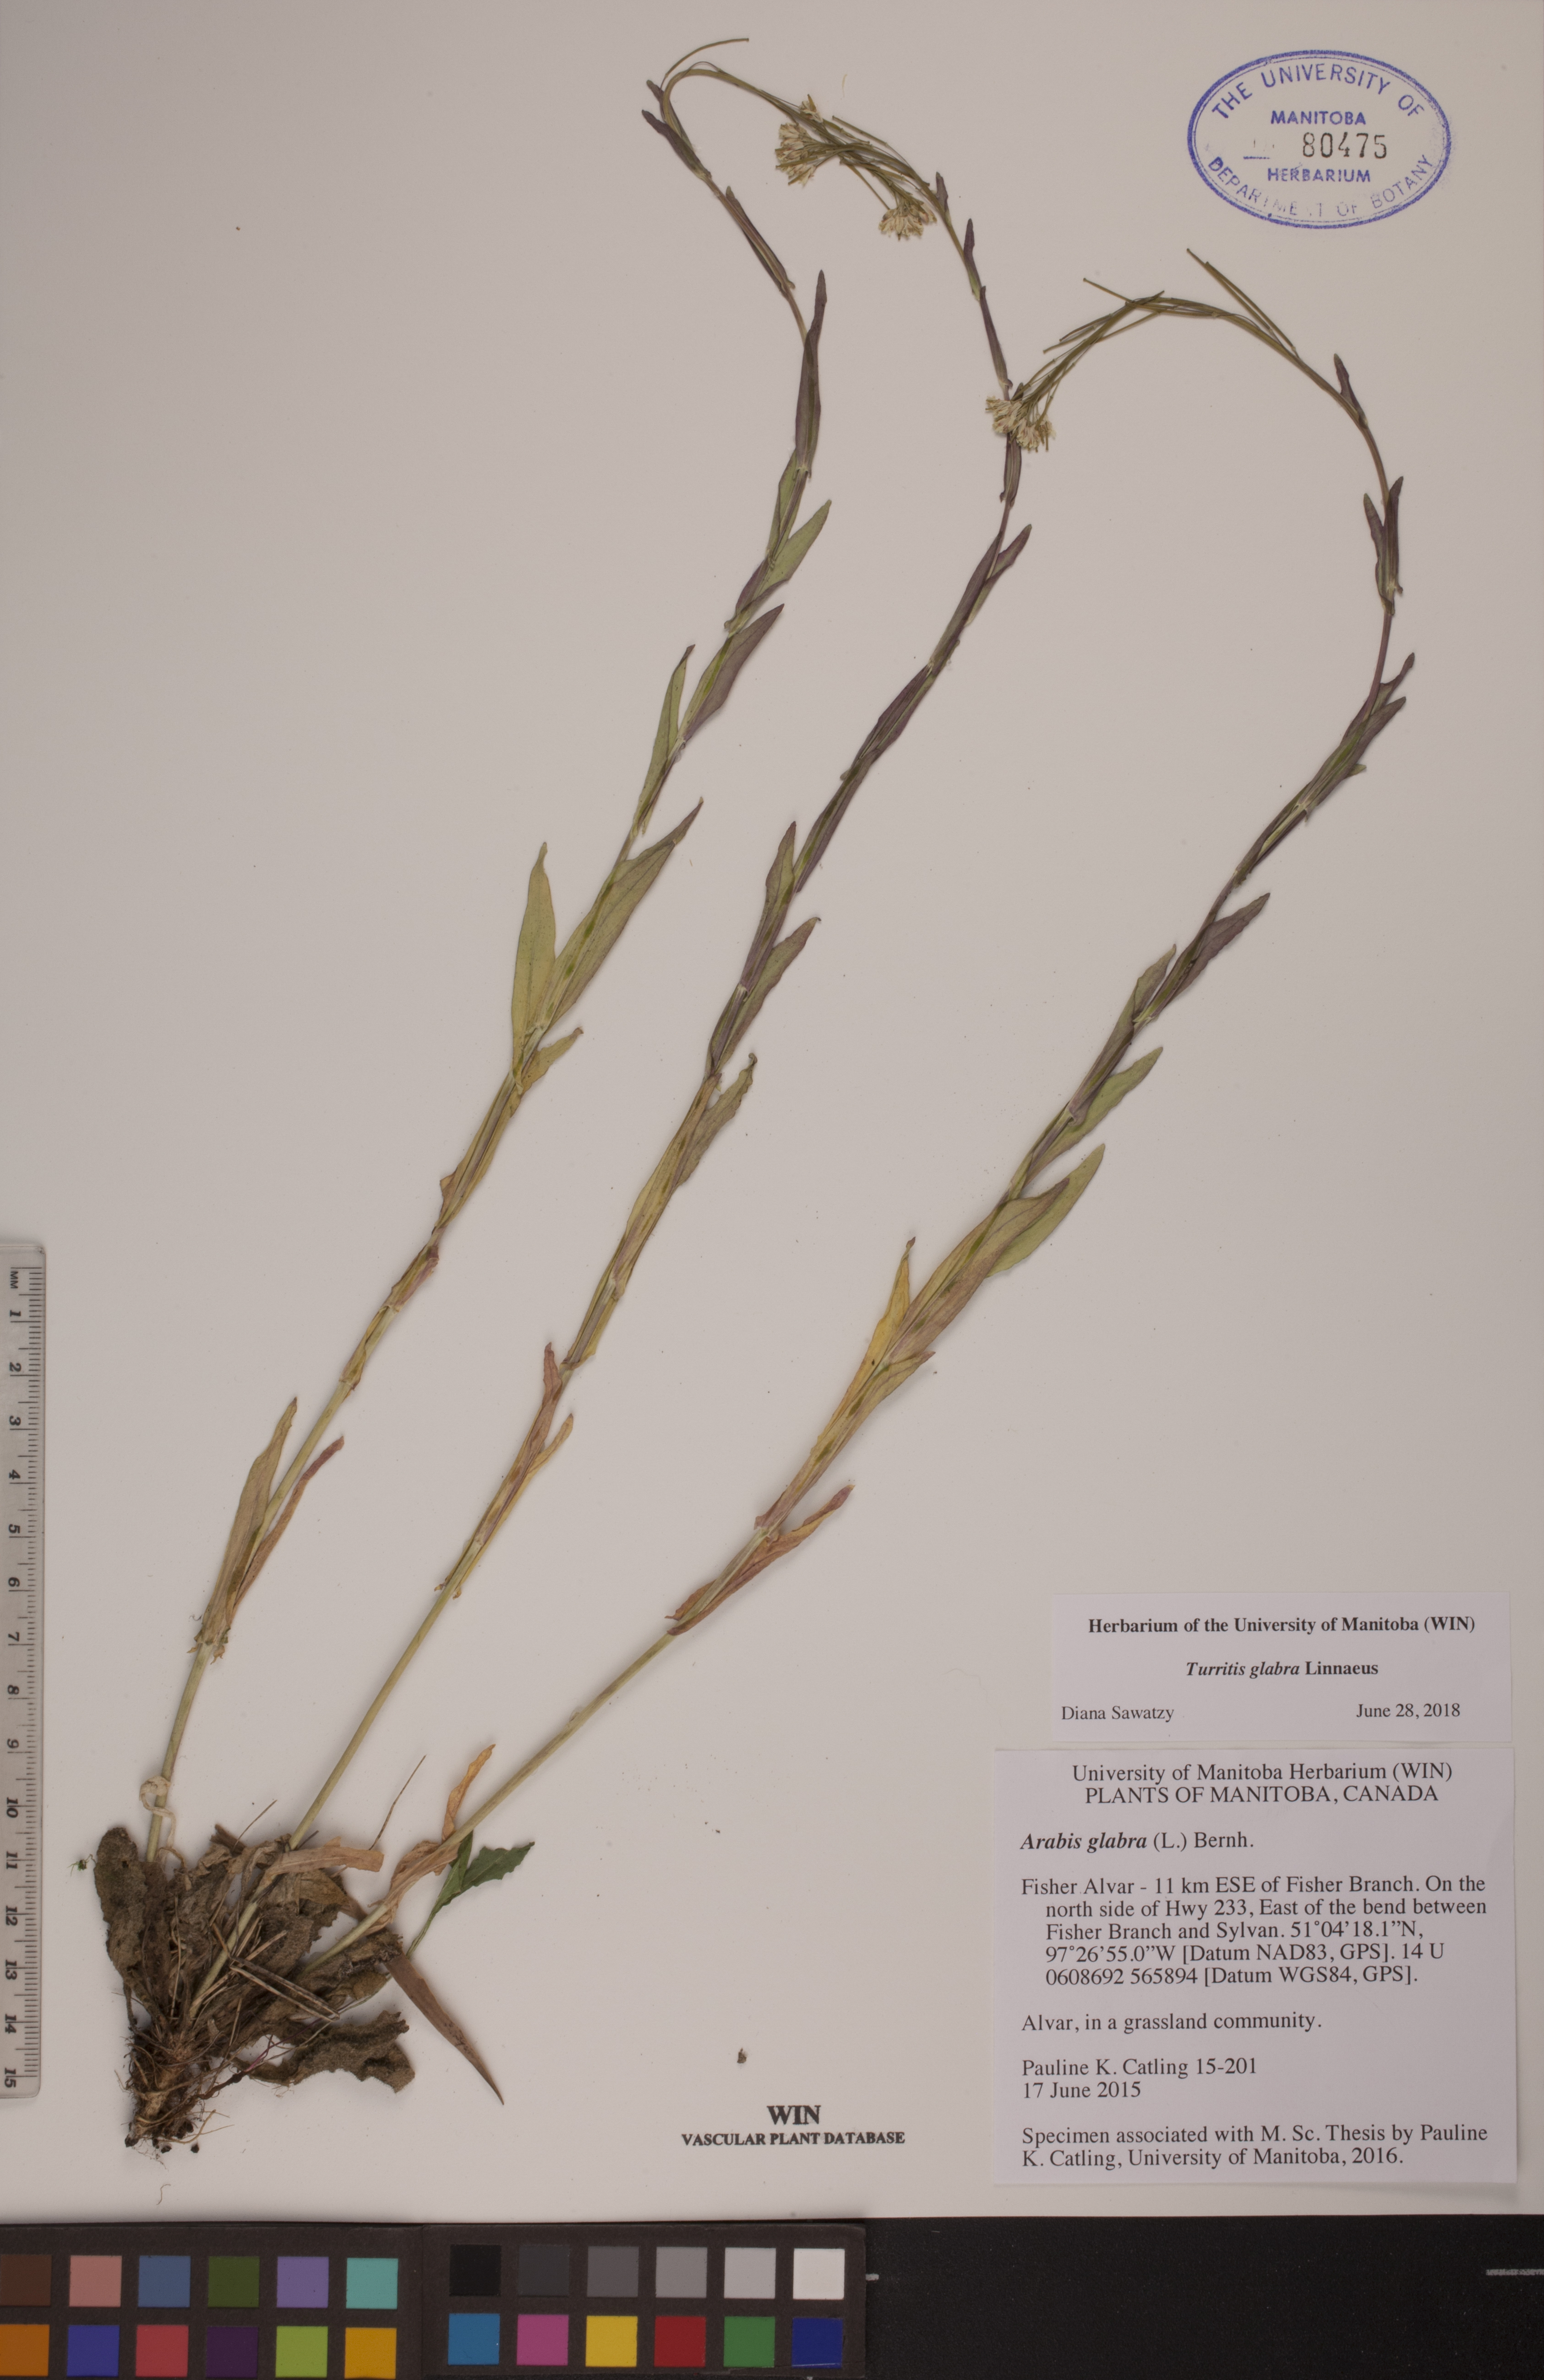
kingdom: Plantae
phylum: Tracheophyta
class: Magnoliopsida
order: Brassicales
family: Brassicaceae
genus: Turritis
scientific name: Turritis glabra
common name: Tower rockcress
